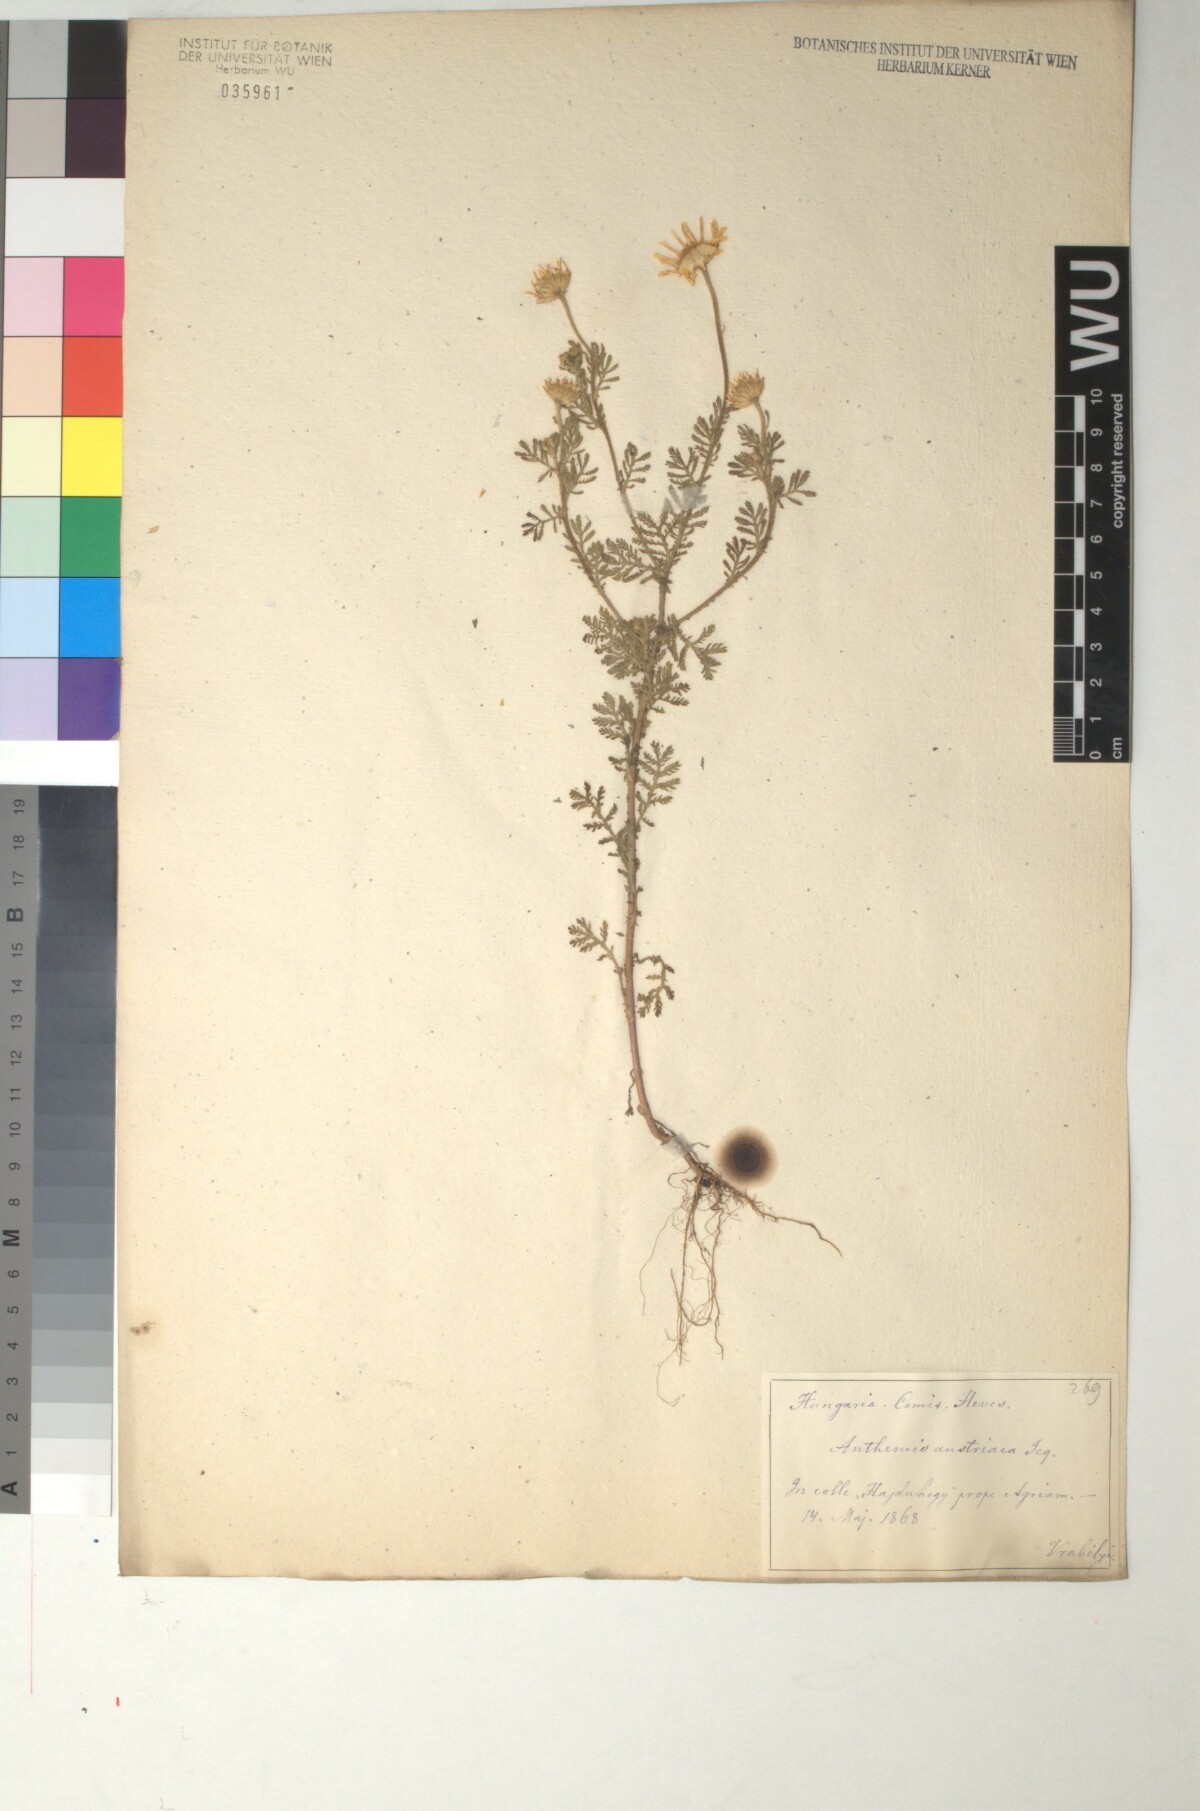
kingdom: Plantae
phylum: Tracheophyta
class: Magnoliopsida
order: Asterales
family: Asteraceae
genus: Cota
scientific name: Cota austriaca
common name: Austrian chamomile
